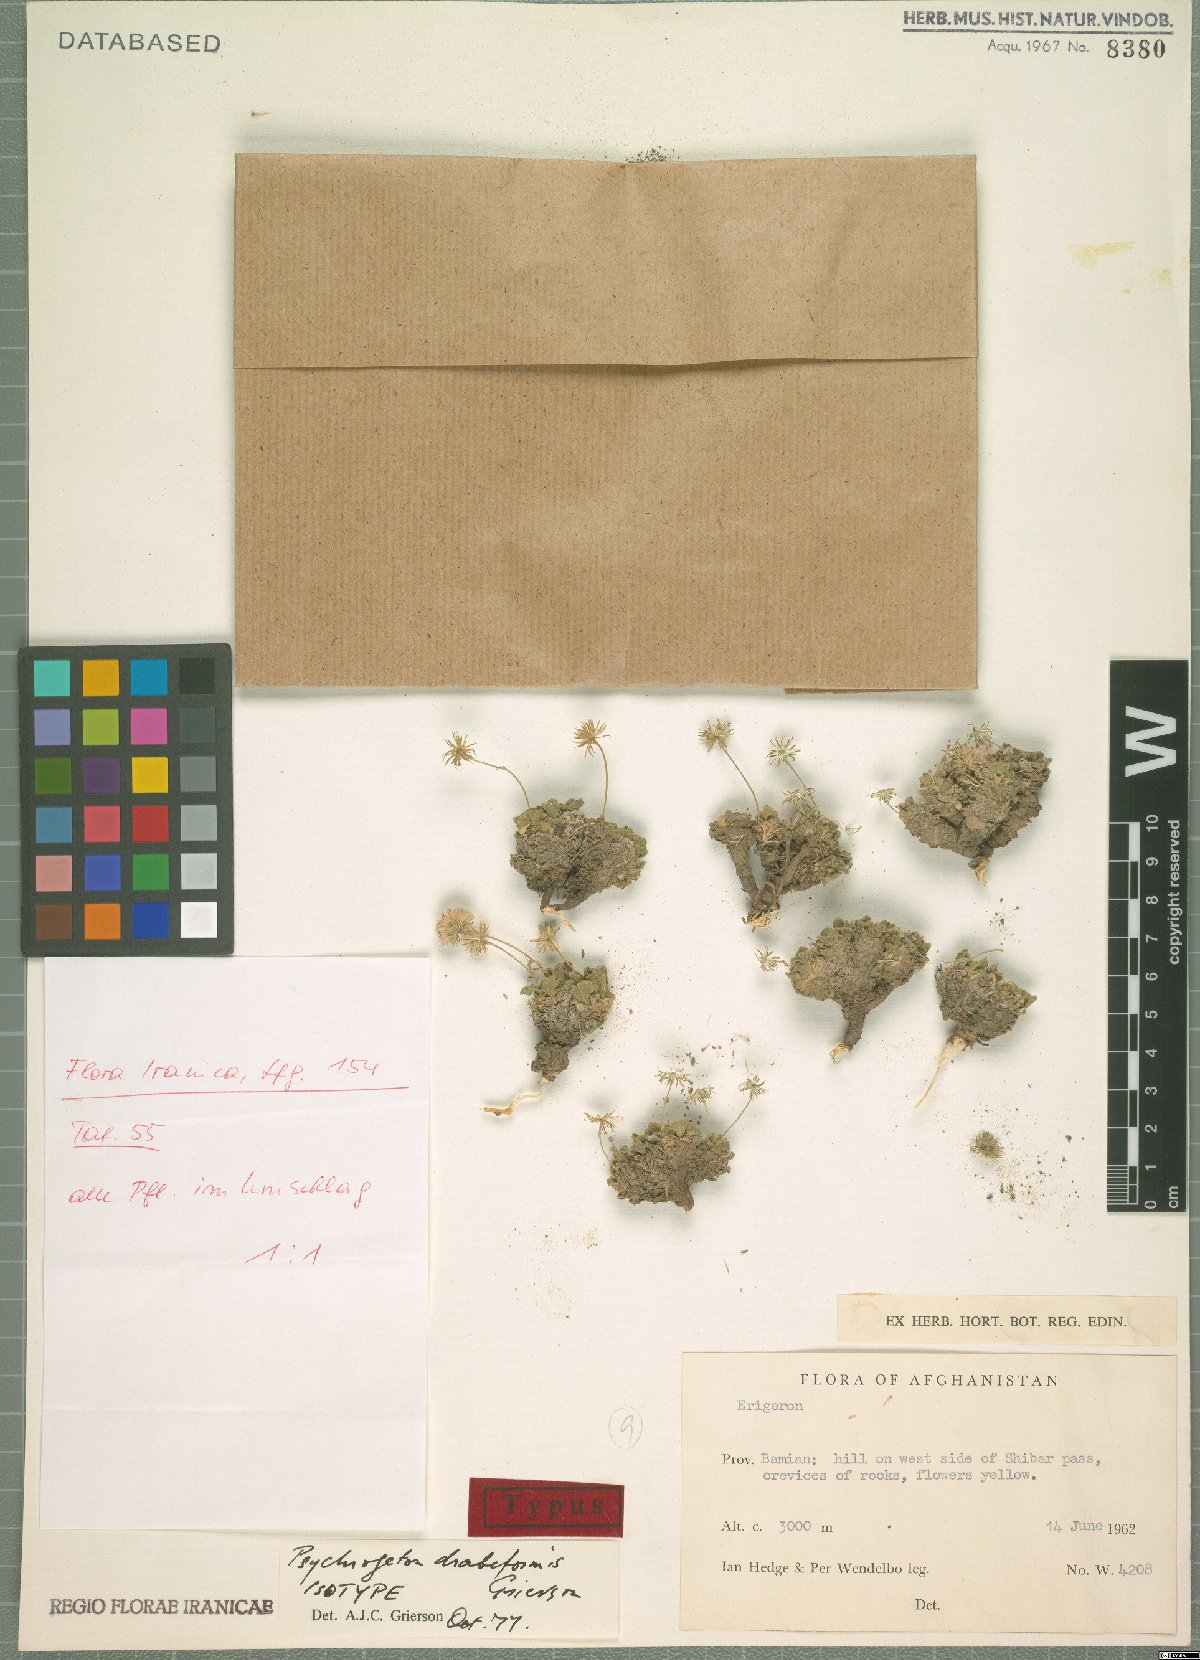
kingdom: Plantae
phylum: Tracheophyta
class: Magnoliopsida
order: Asterales
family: Asteraceae
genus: Psychrogeton
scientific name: Psychrogeton drabiformis
